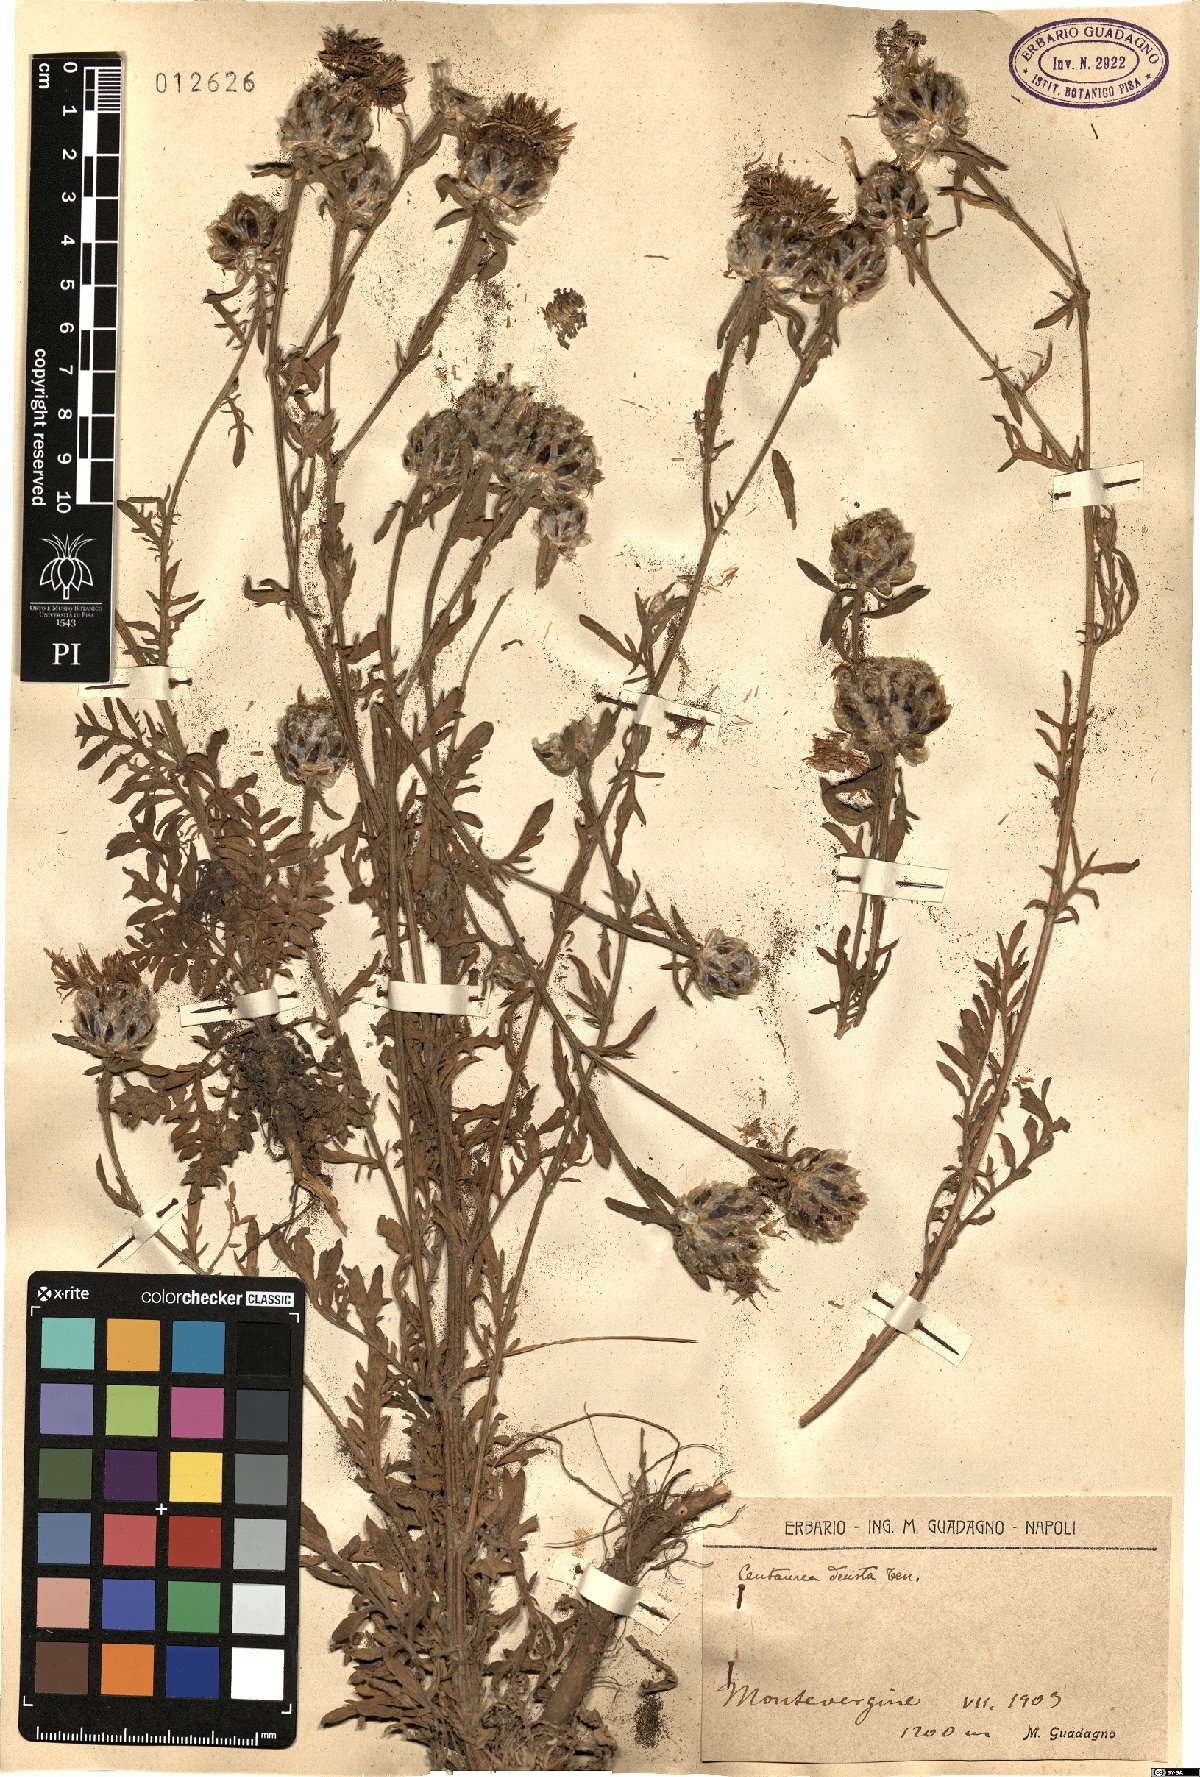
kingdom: Plantae
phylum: Tracheophyta
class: Magnoliopsida
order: Asterales
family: Asteraceae
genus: Centaurea
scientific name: Centaurea deusta
